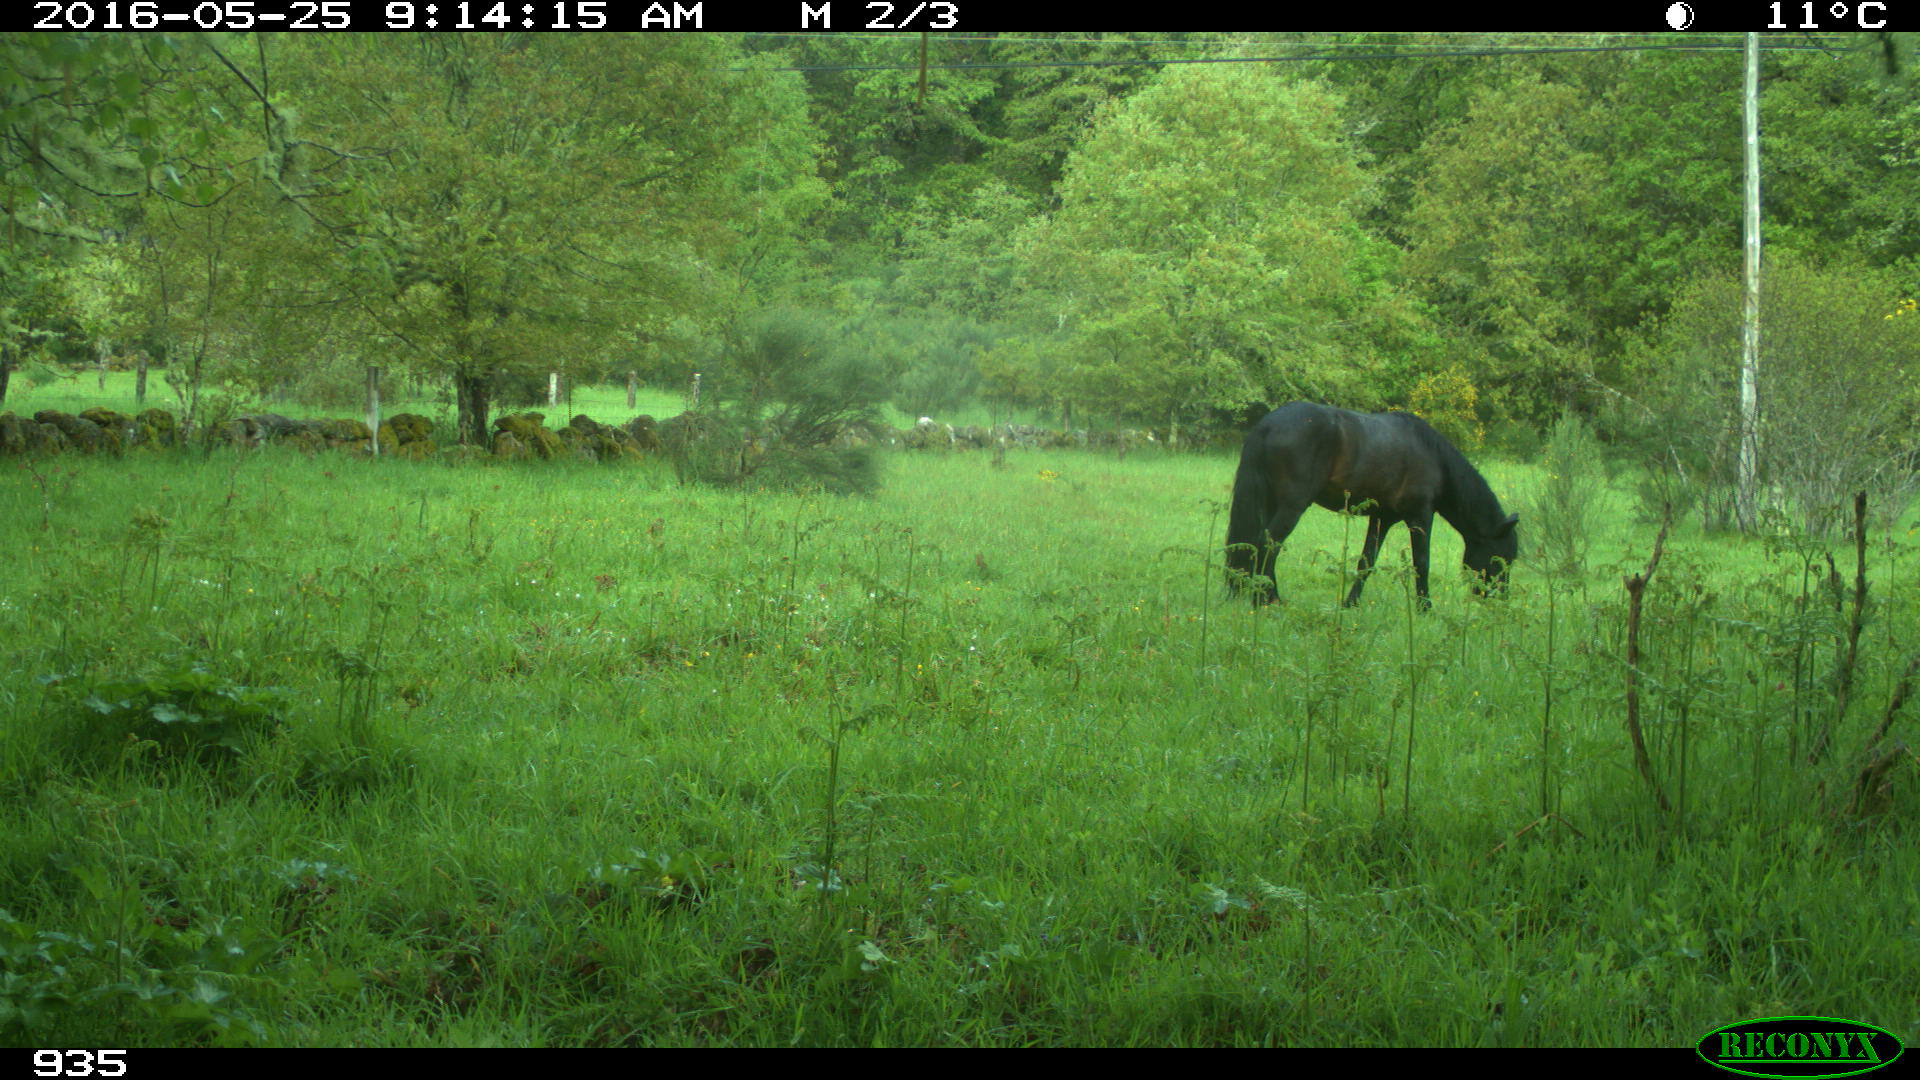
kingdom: Animalia
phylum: Chordata
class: Mammalia
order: Perissodactyla
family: Equidae
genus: Equus
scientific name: Equus caballus
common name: Horse
